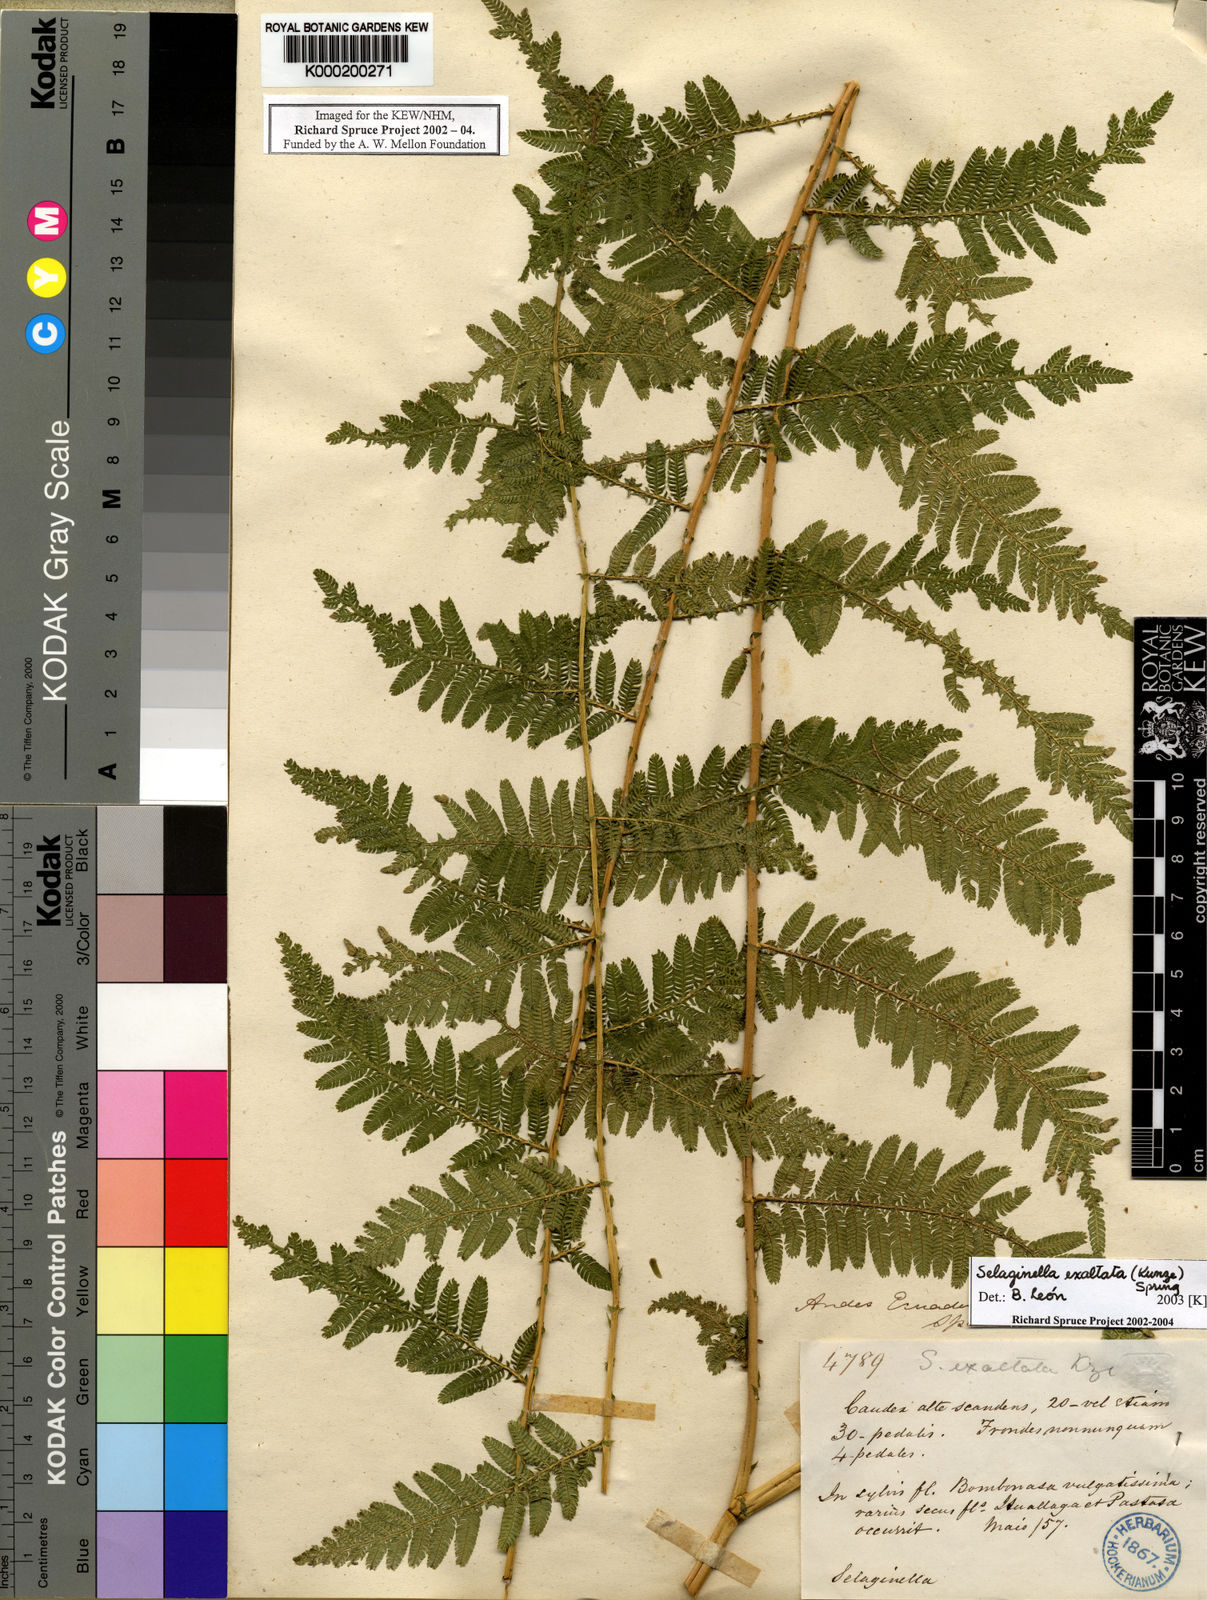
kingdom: Plantae
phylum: Tracheophyta
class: Lycopodiopsida
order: Selaginellales
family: Selaginellaceae
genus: Selaginella
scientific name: Selaginella exaltata
